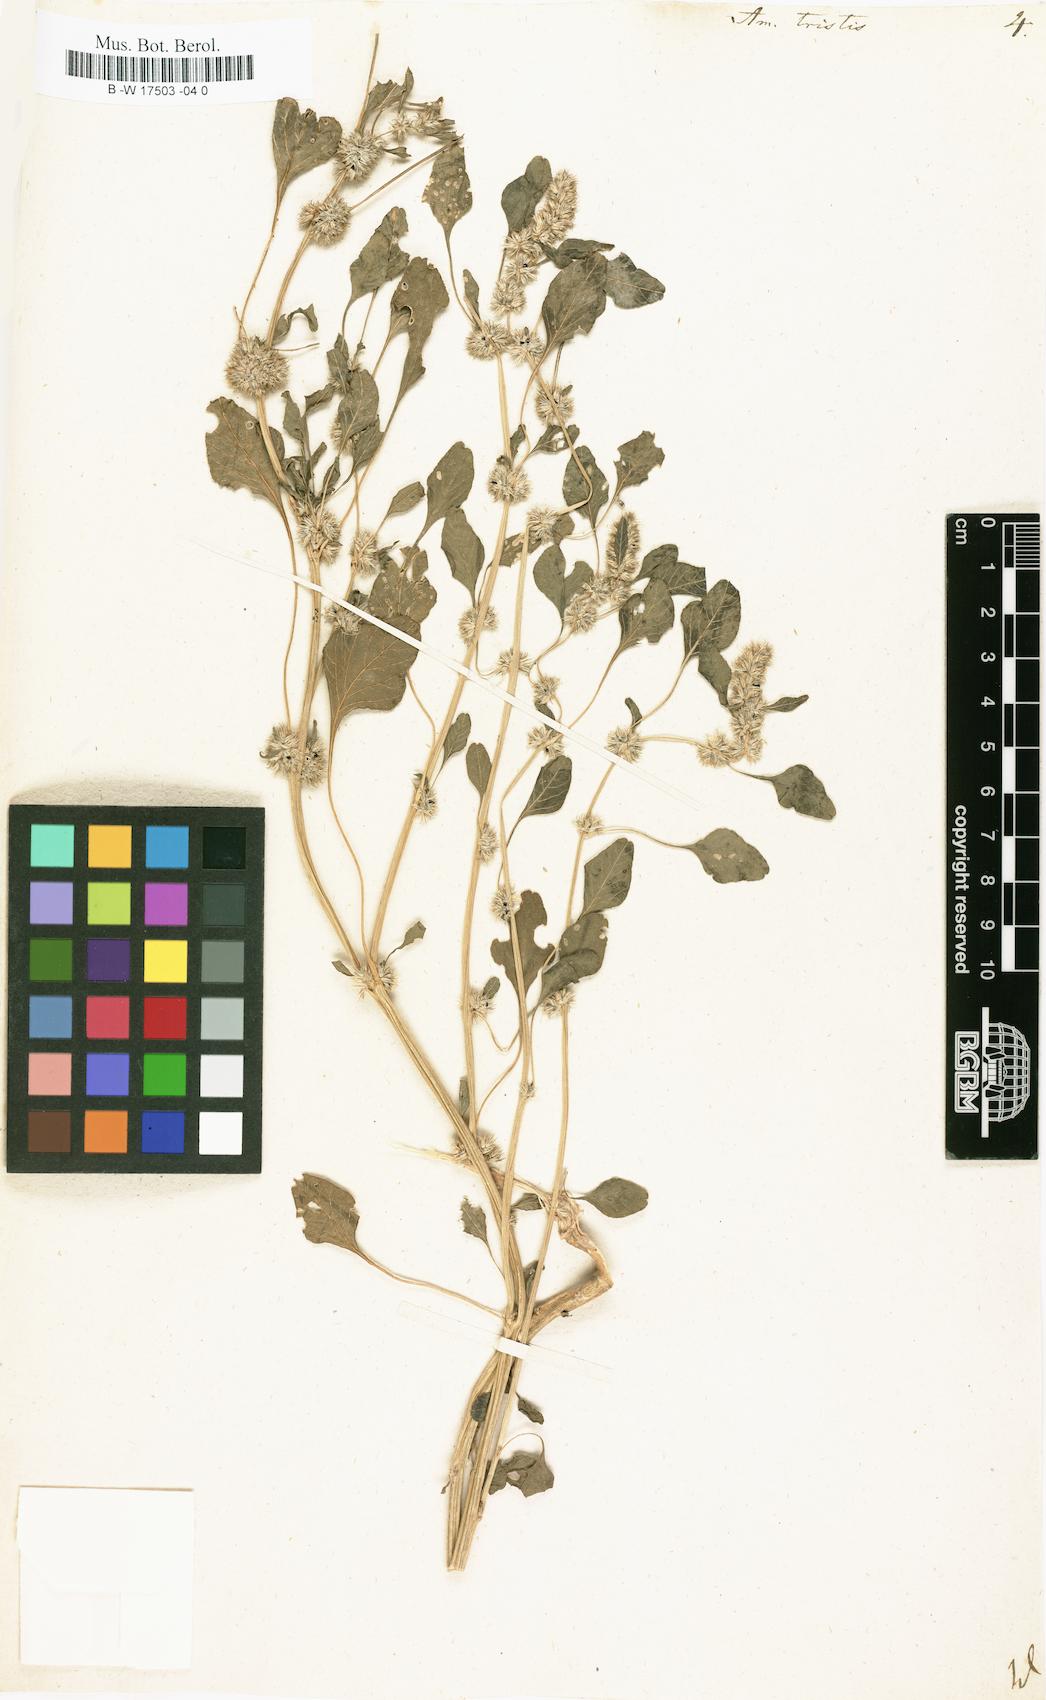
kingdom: Plantae
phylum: Tracheophyta
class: Magnoliopsida
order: Caryophyllales
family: Amaranthaceae
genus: Amaranthus
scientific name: Amaranthus tricolor
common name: Joseph's-coat
